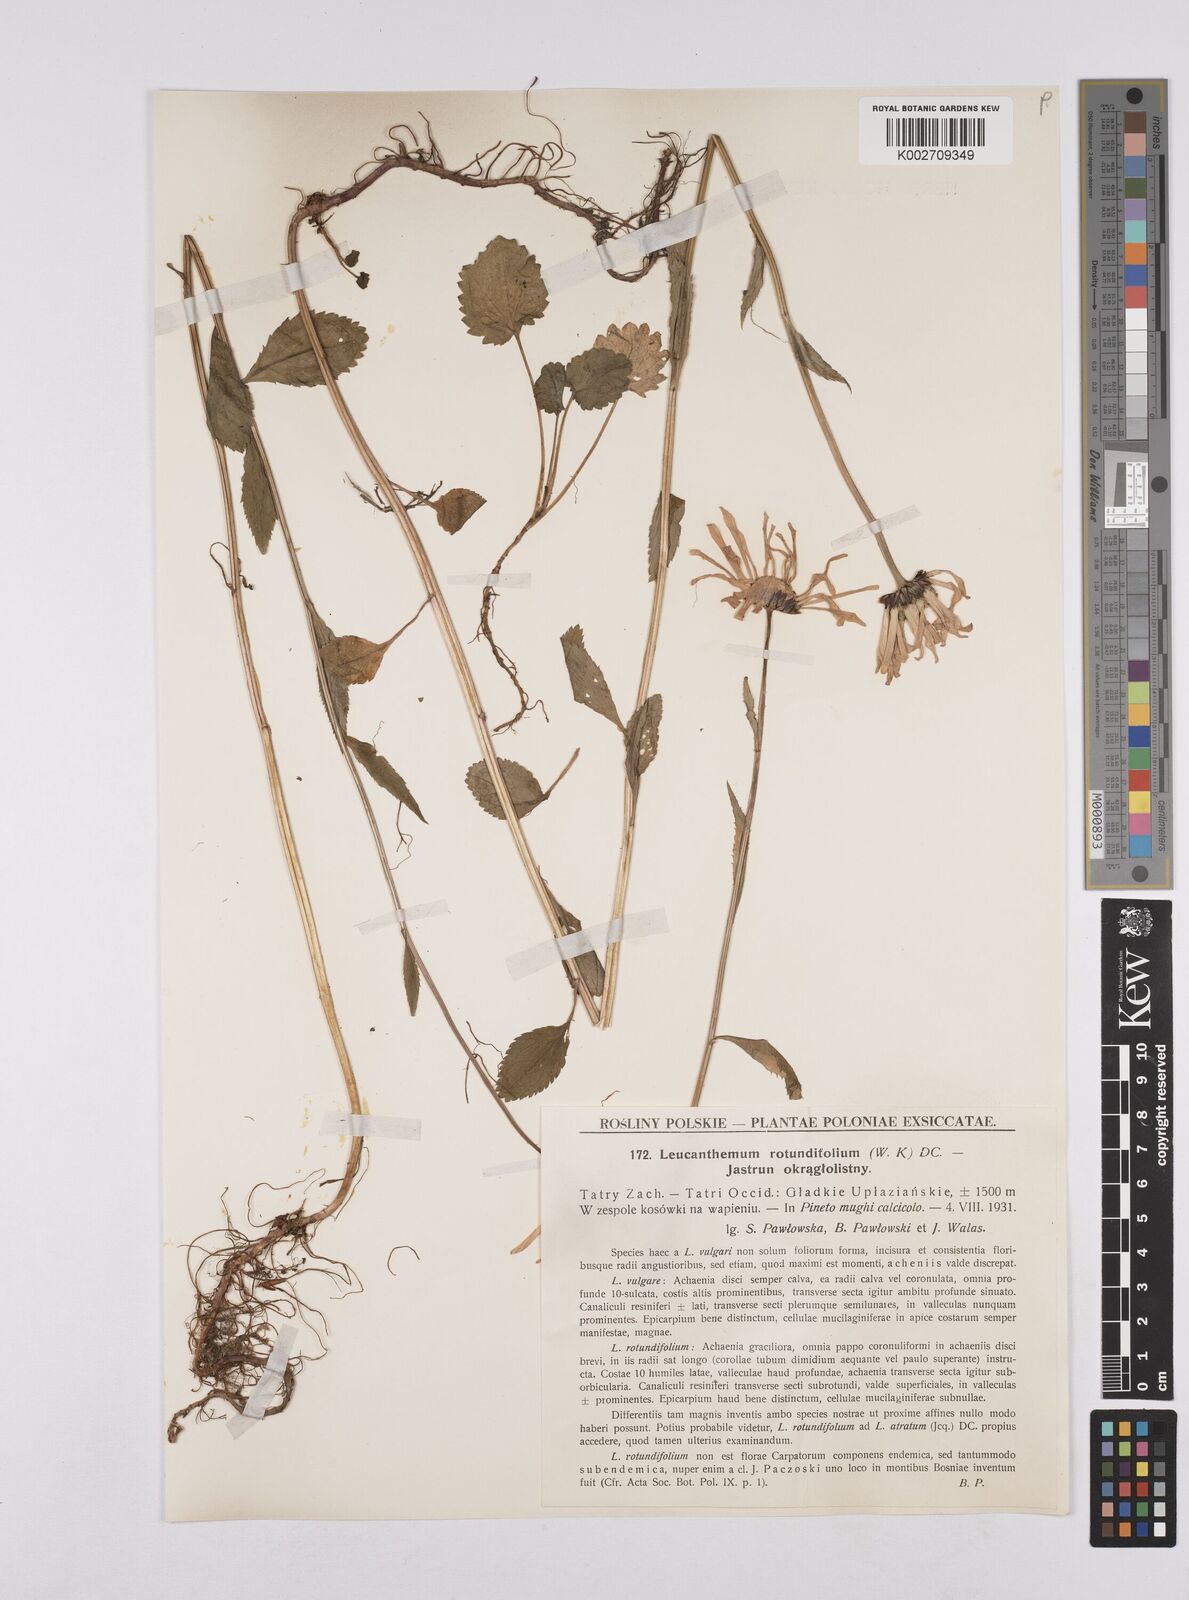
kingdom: Plantae
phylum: Tracheophyta
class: Magnoliopsida
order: Asterales
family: Asteraceae
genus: Leucanthemum
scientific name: Leucanthemum rotundifolium
